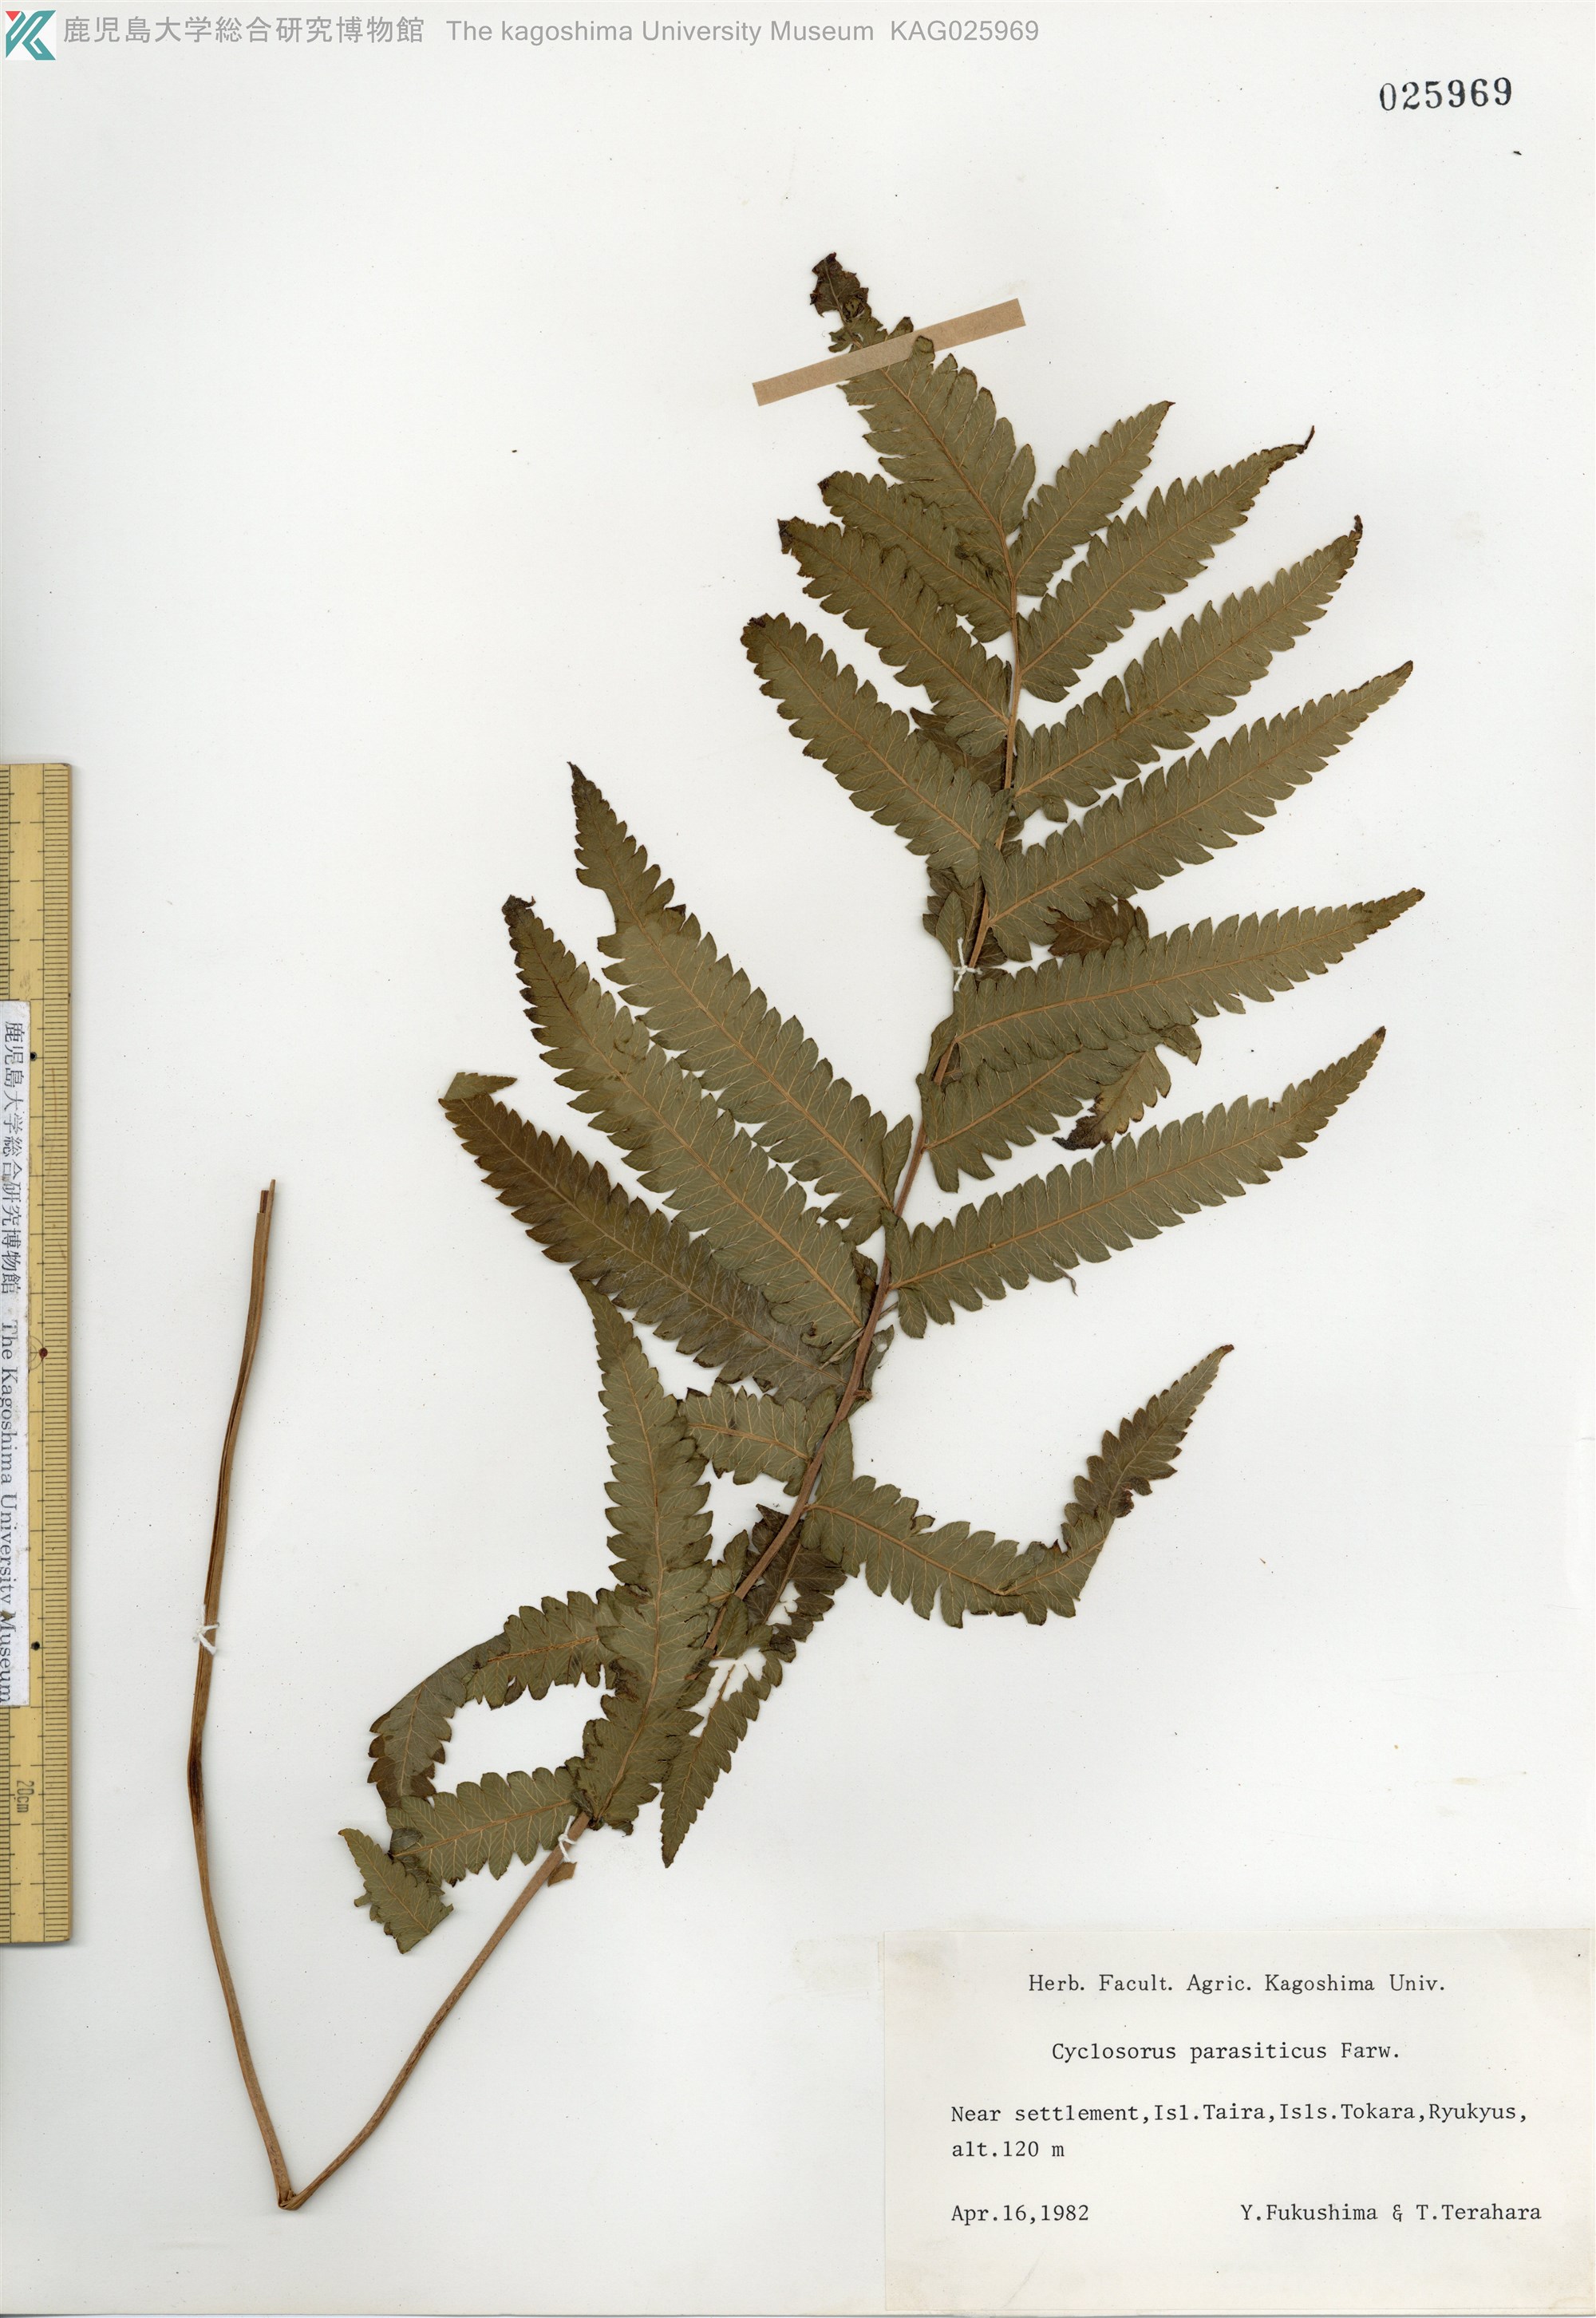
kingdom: Plantae
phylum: Tracheophyta
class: Polypodiopsida
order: Polypodiales
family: Thelypteridaceae
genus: Christella
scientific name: Christella parasitica
